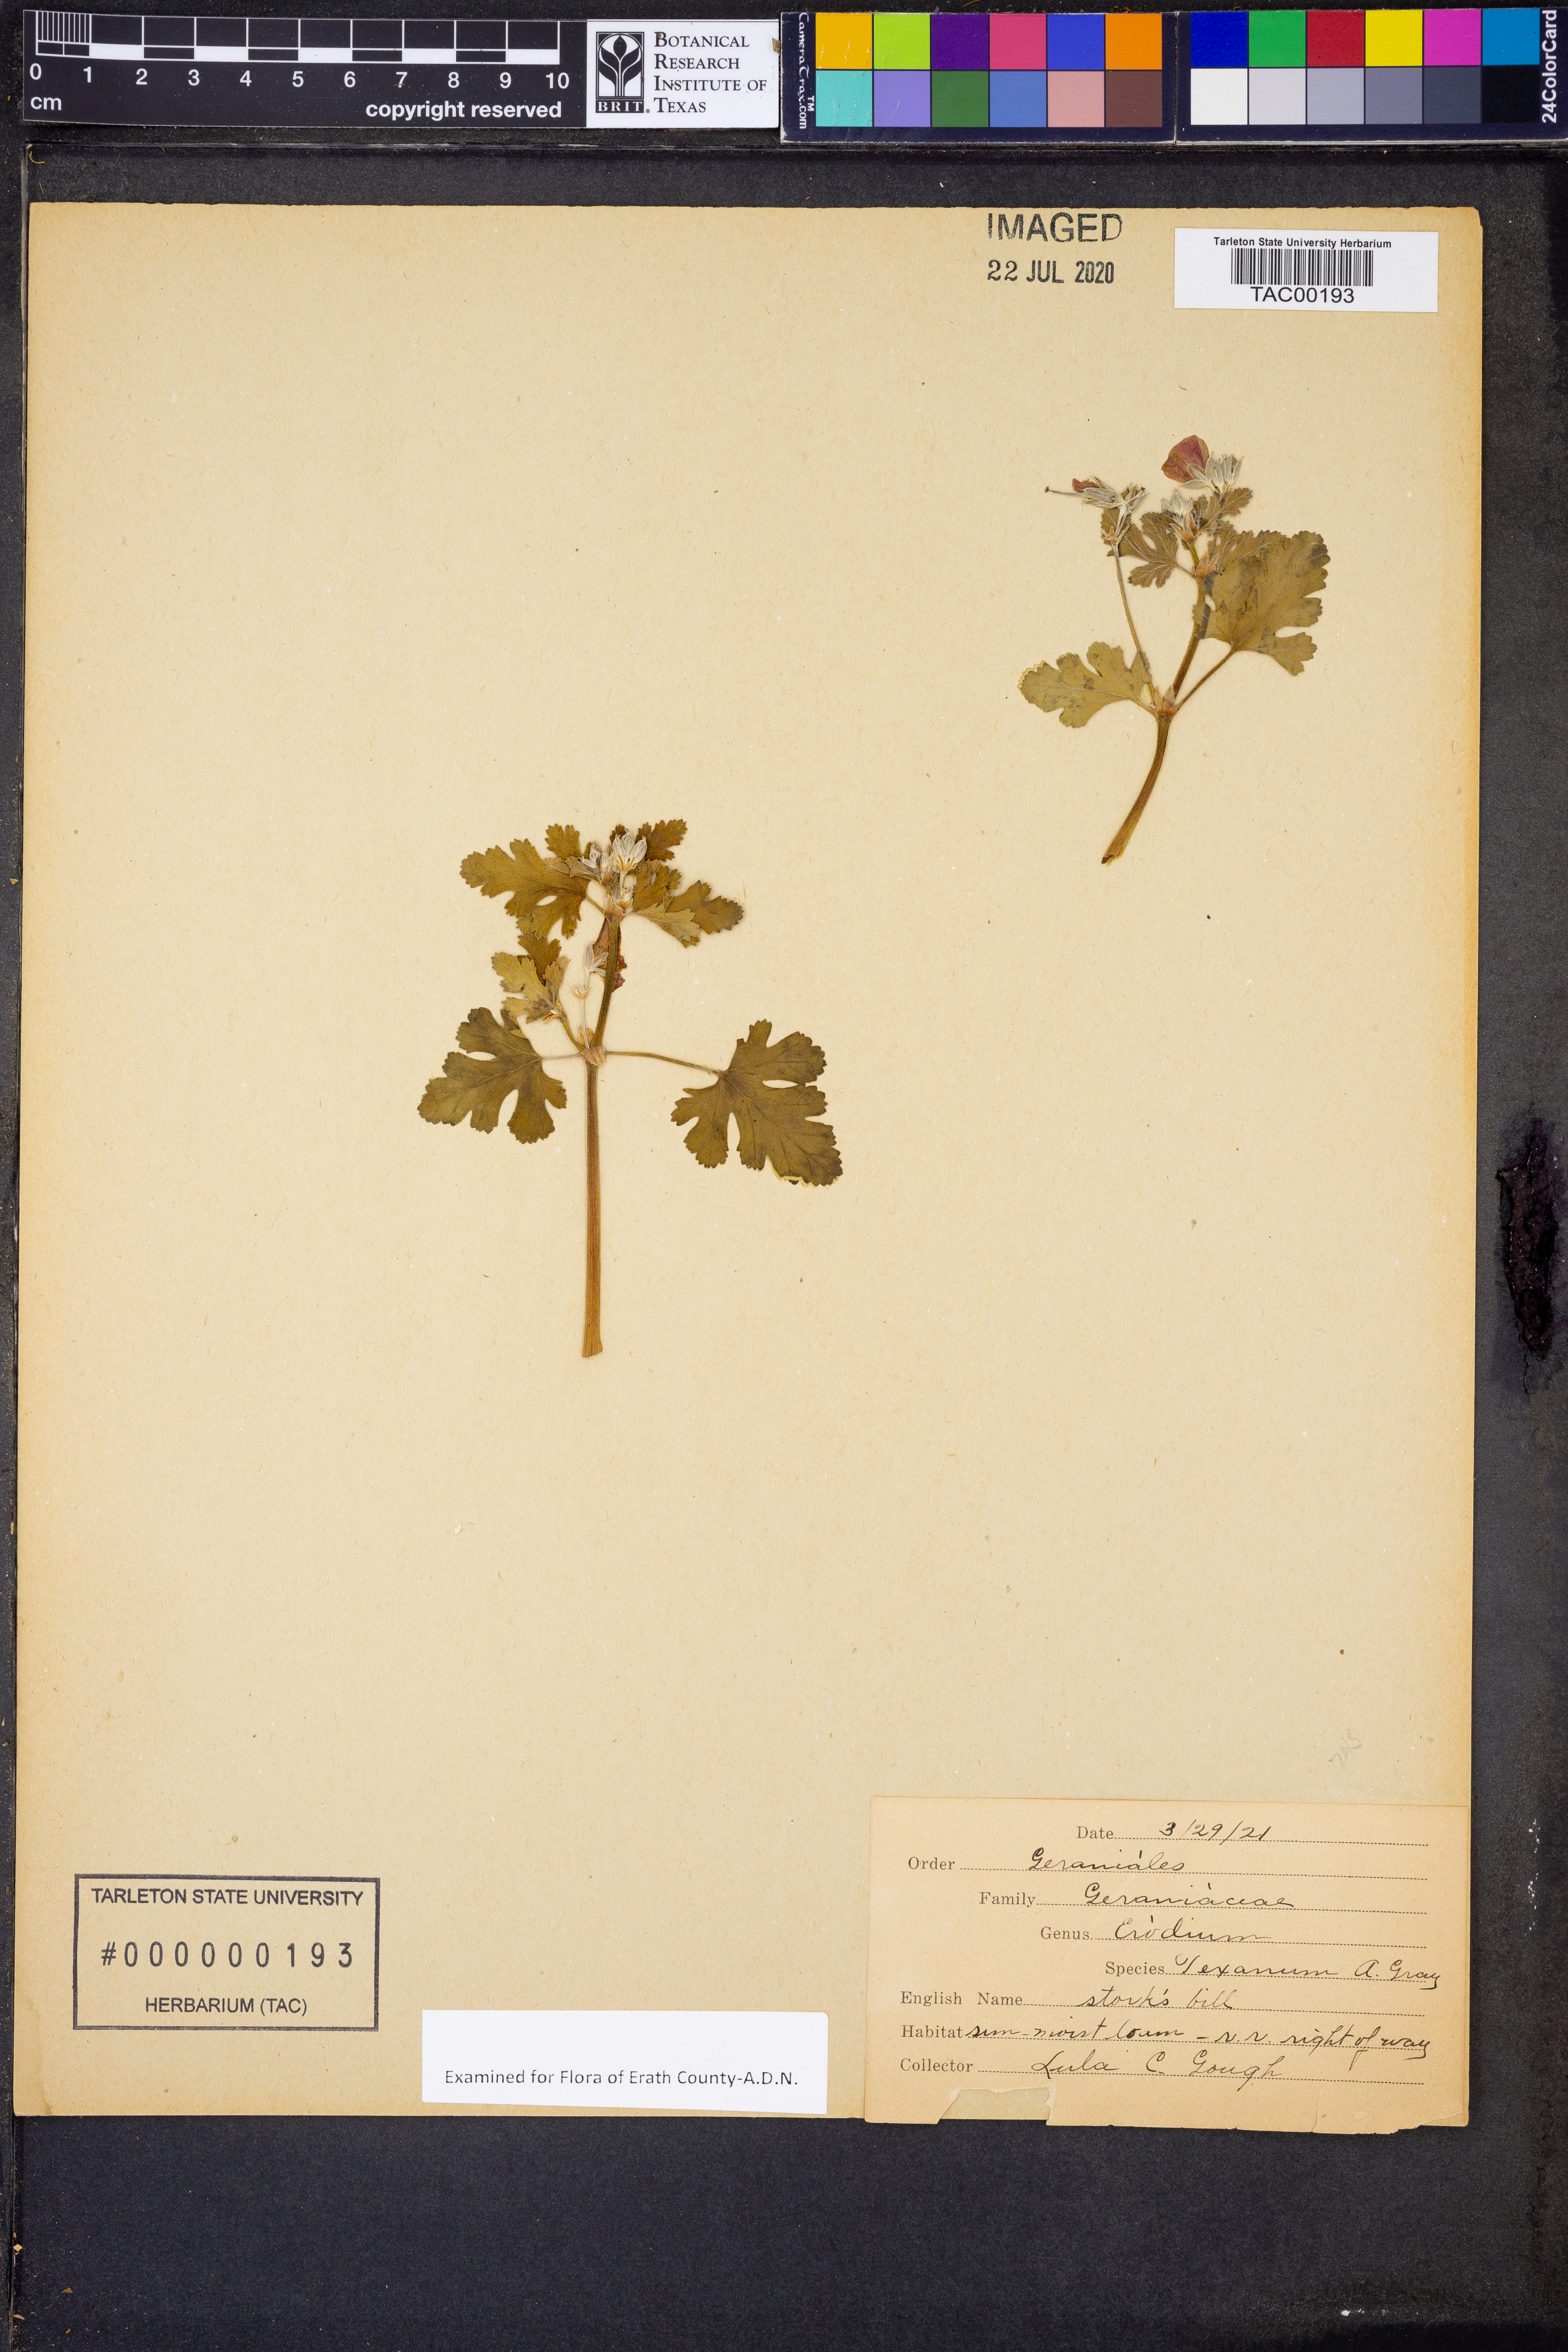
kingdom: Plantae
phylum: Tracheophyta
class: Magnoliopsida
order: Geraniales
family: Geraniaceae
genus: Erodium
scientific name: Erodium texanum
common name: Texas stork's-bill
